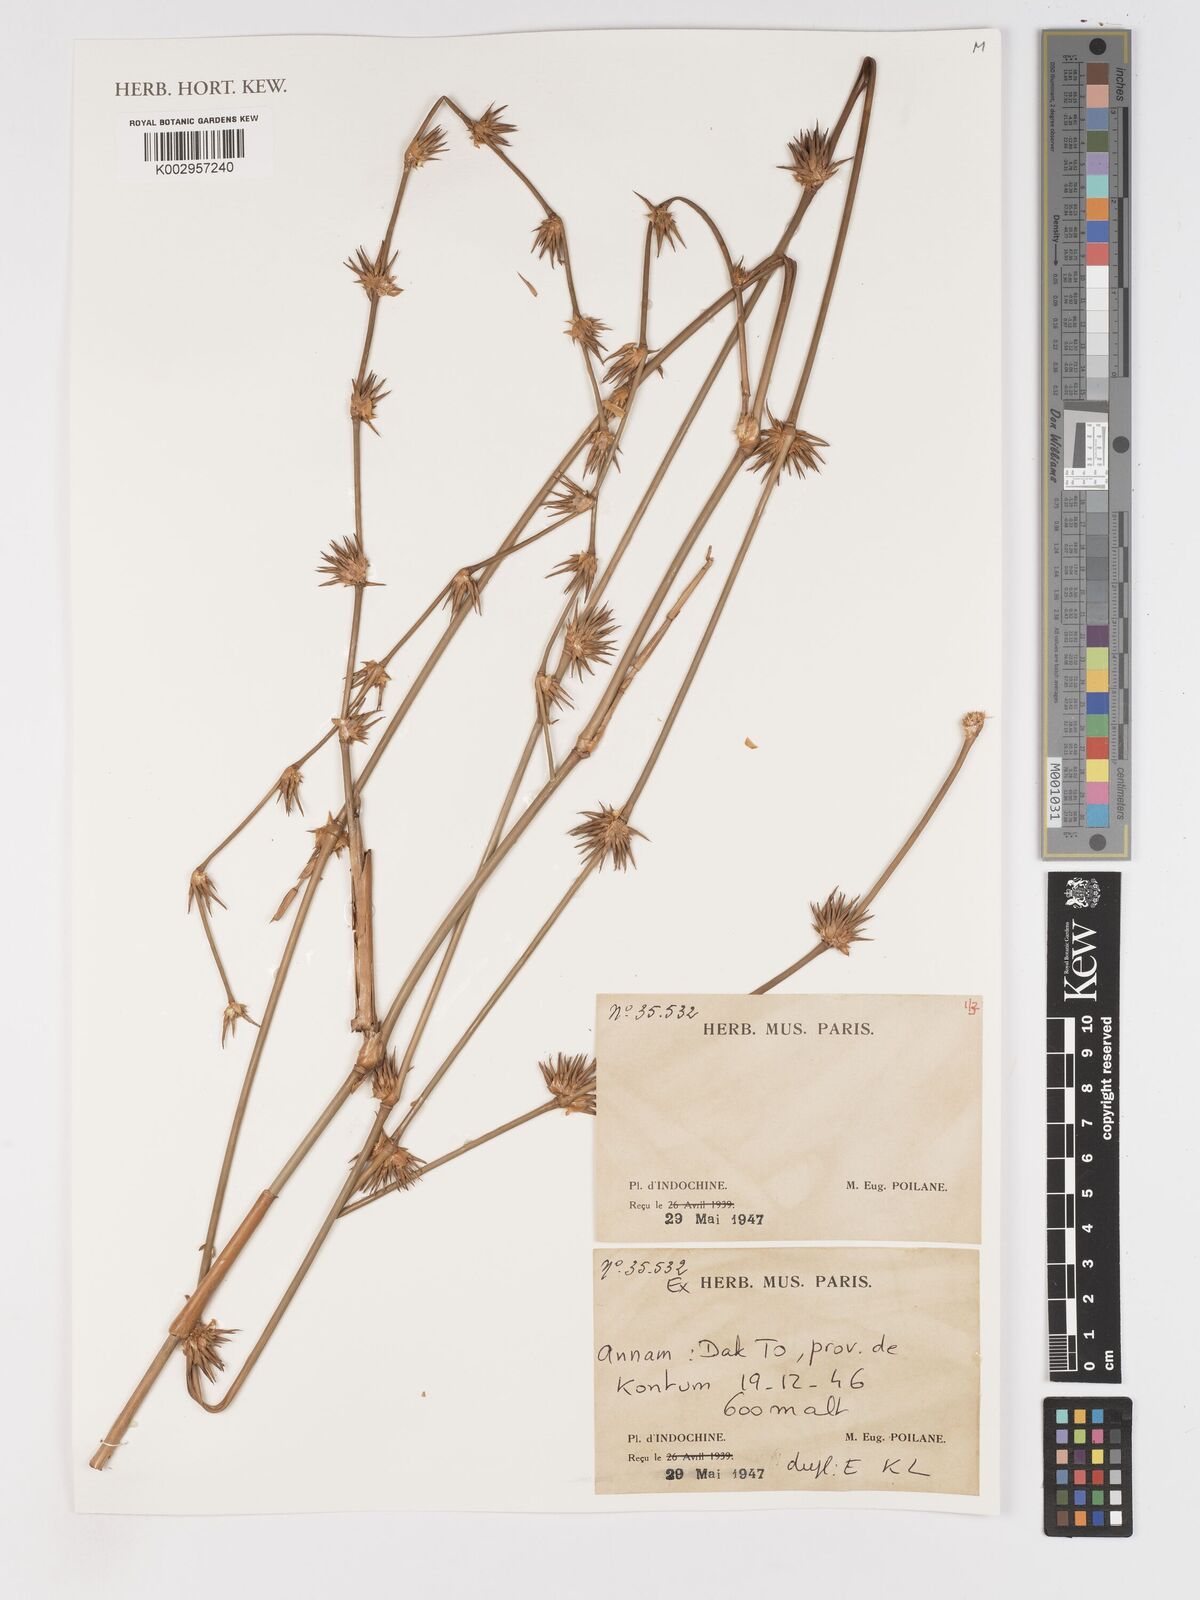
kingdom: Plantae
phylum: Tracheophyta
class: Liliopsida
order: Poales
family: Poaceae
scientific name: Poaceae
